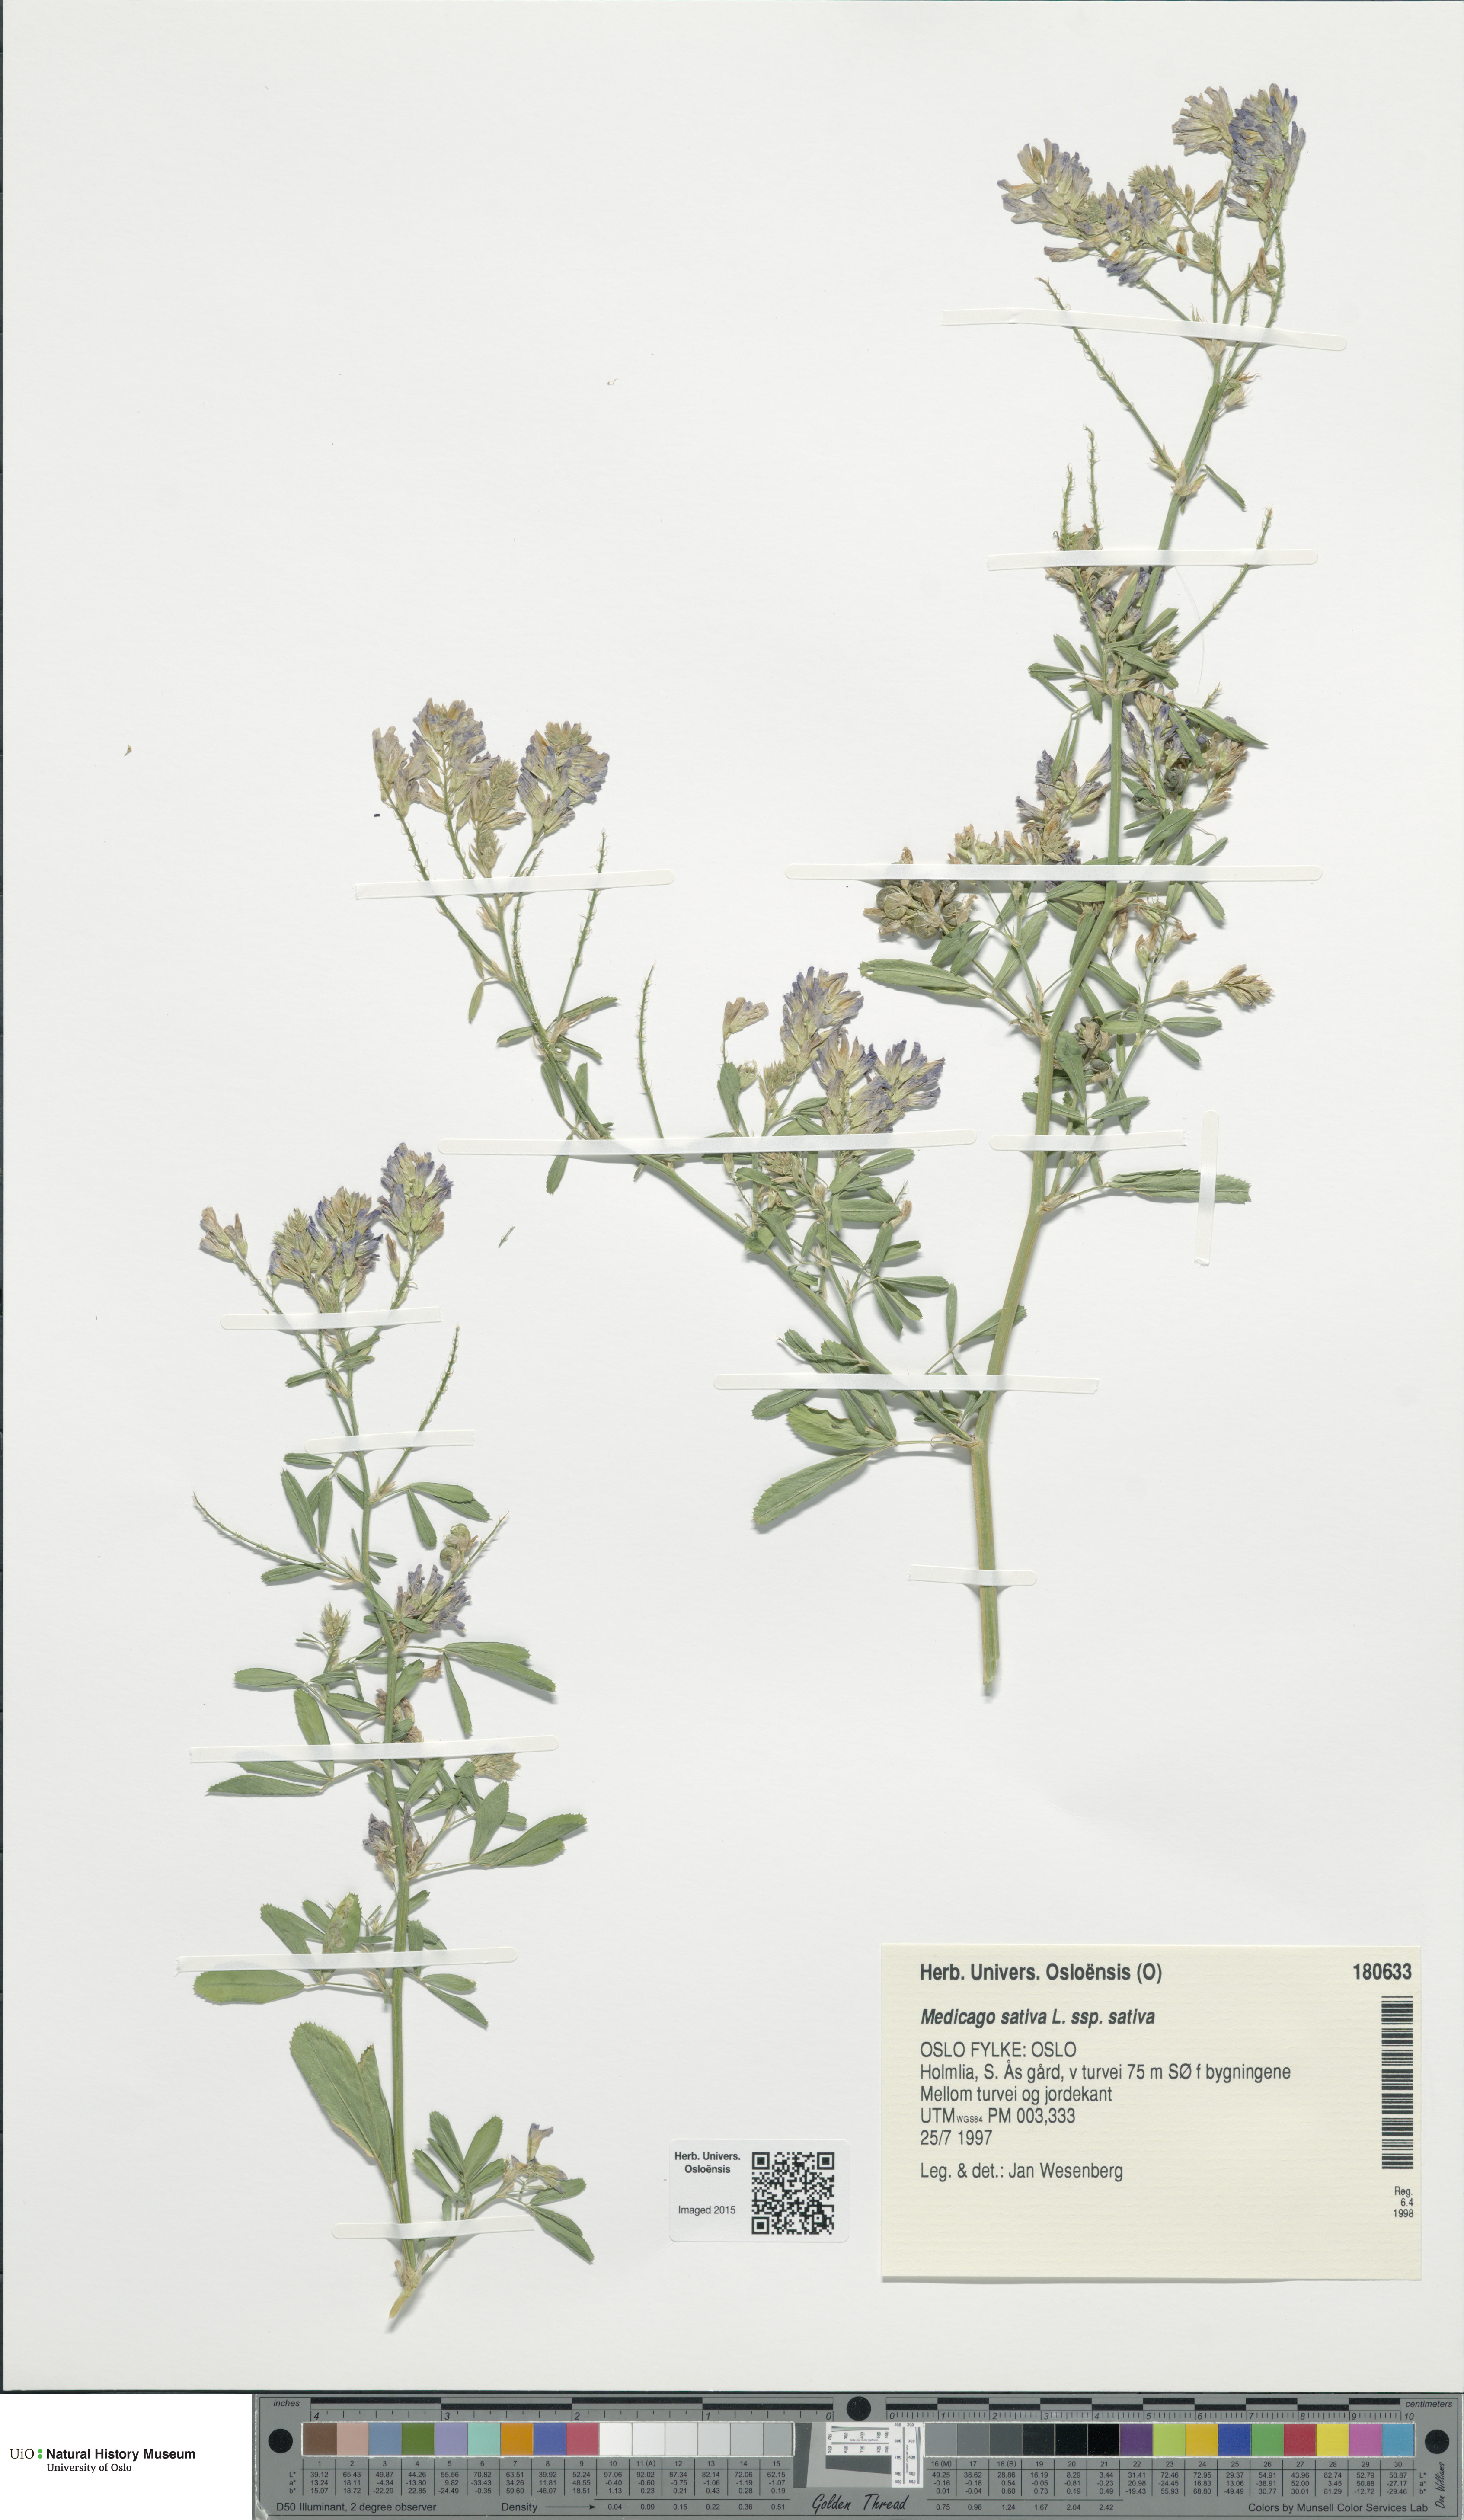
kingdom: Plantae
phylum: Tracheophyta
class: Magnoliopsida
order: Fabales
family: Fabaceae
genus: Medicago
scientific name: Medicago sativa
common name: Alfalfa
